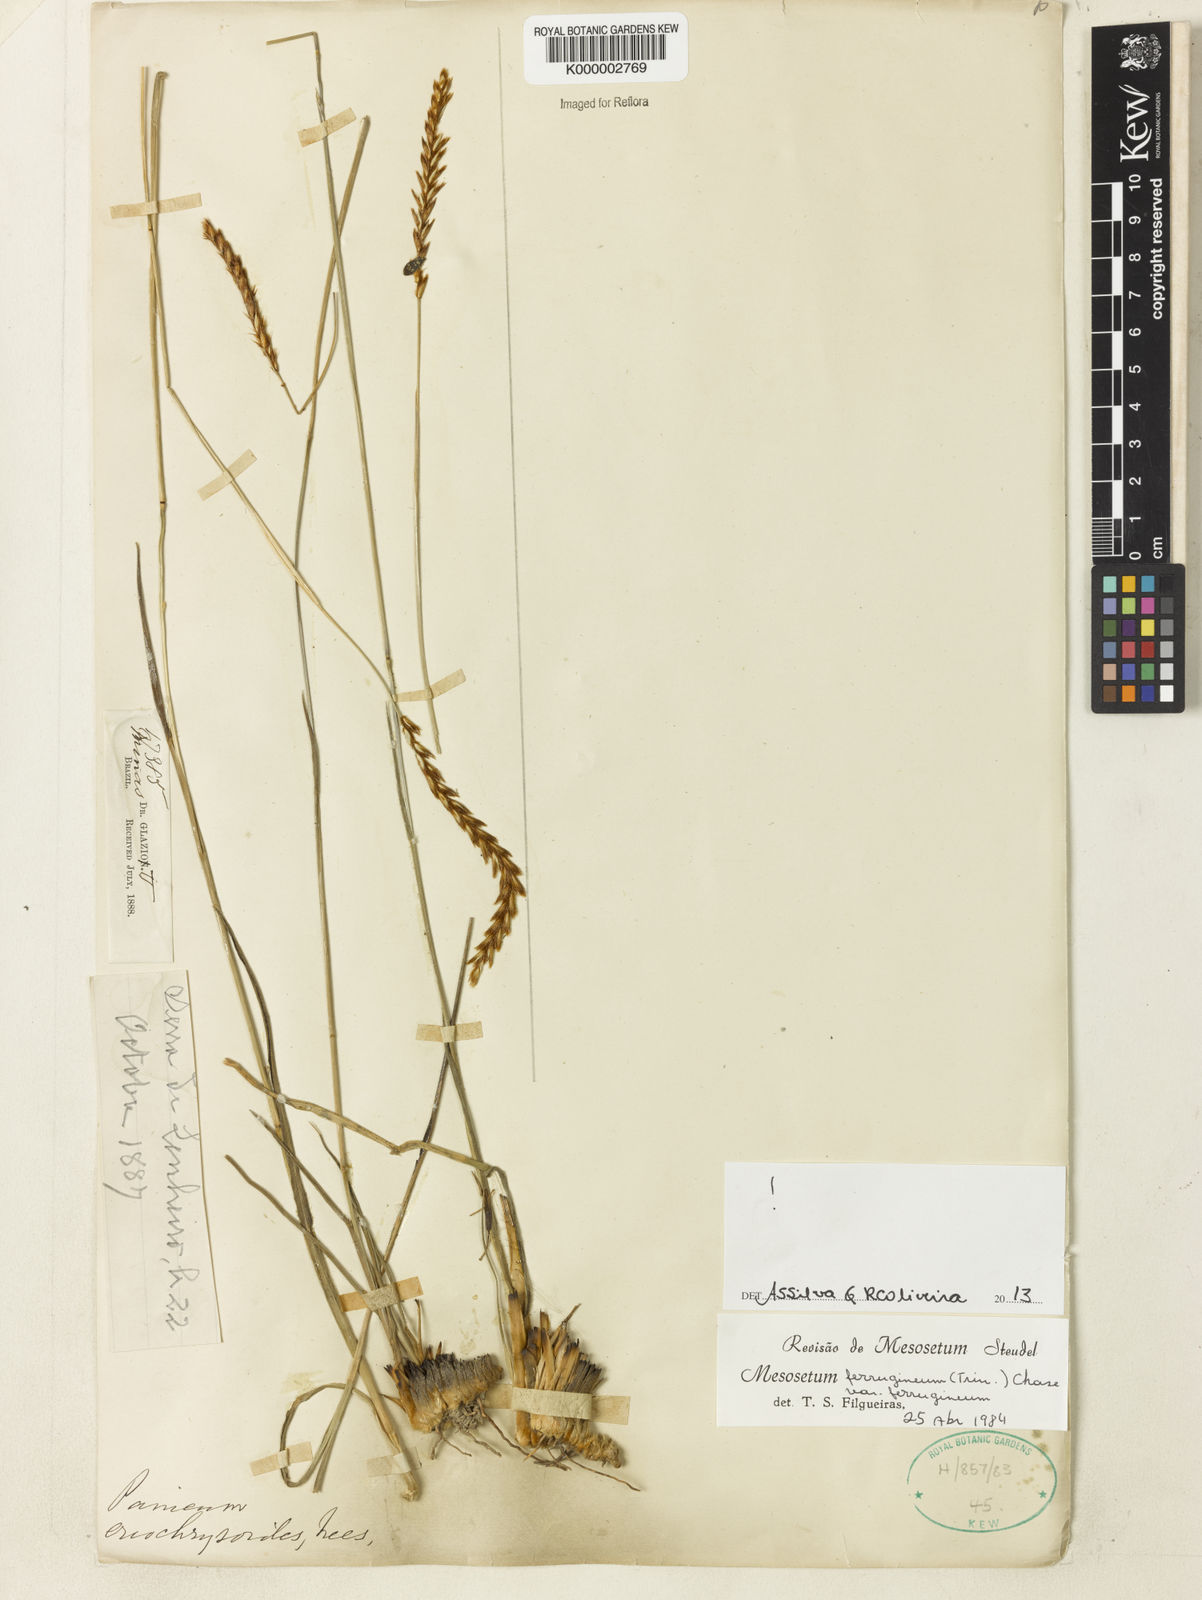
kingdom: Plantae
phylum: Tracheophyta
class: Liliopsida
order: Poales
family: Poaceae
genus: Mesosetum
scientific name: Mesosetum
